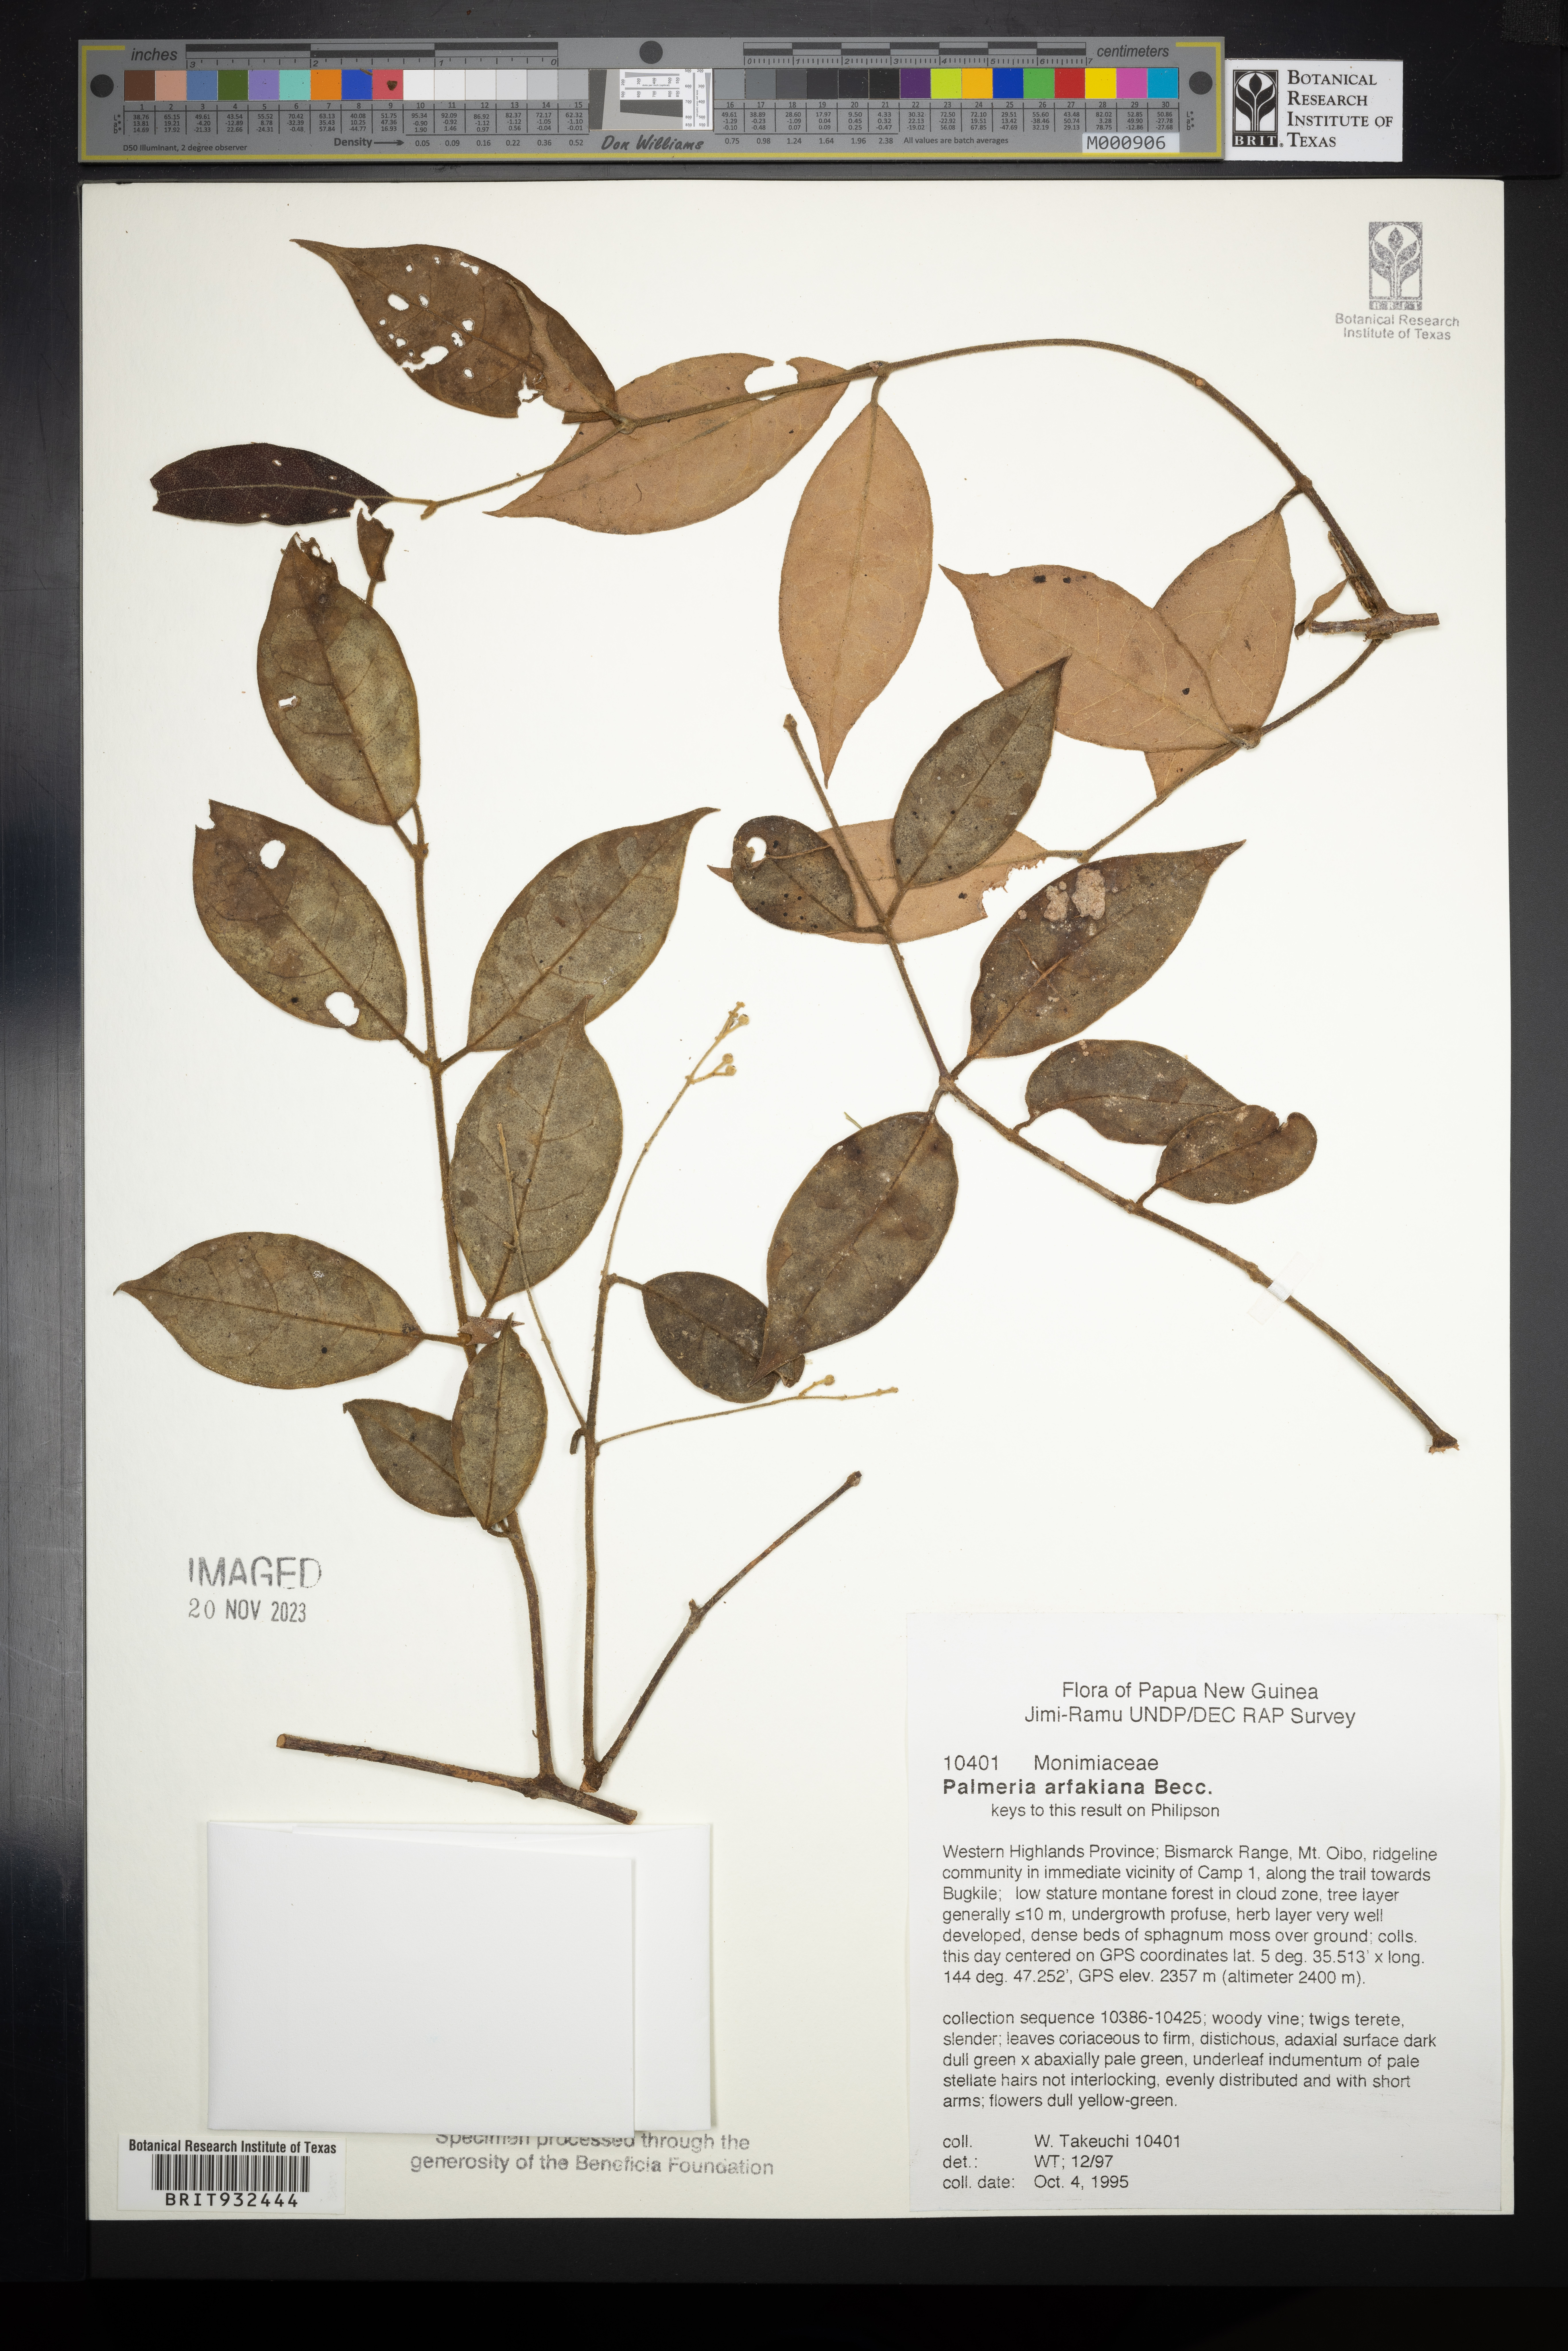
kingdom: Plantae
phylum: Tracheophyta
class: Magnoliopsida
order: Laurales
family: Monimiaceae
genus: Palmeria
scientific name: Palmeria
